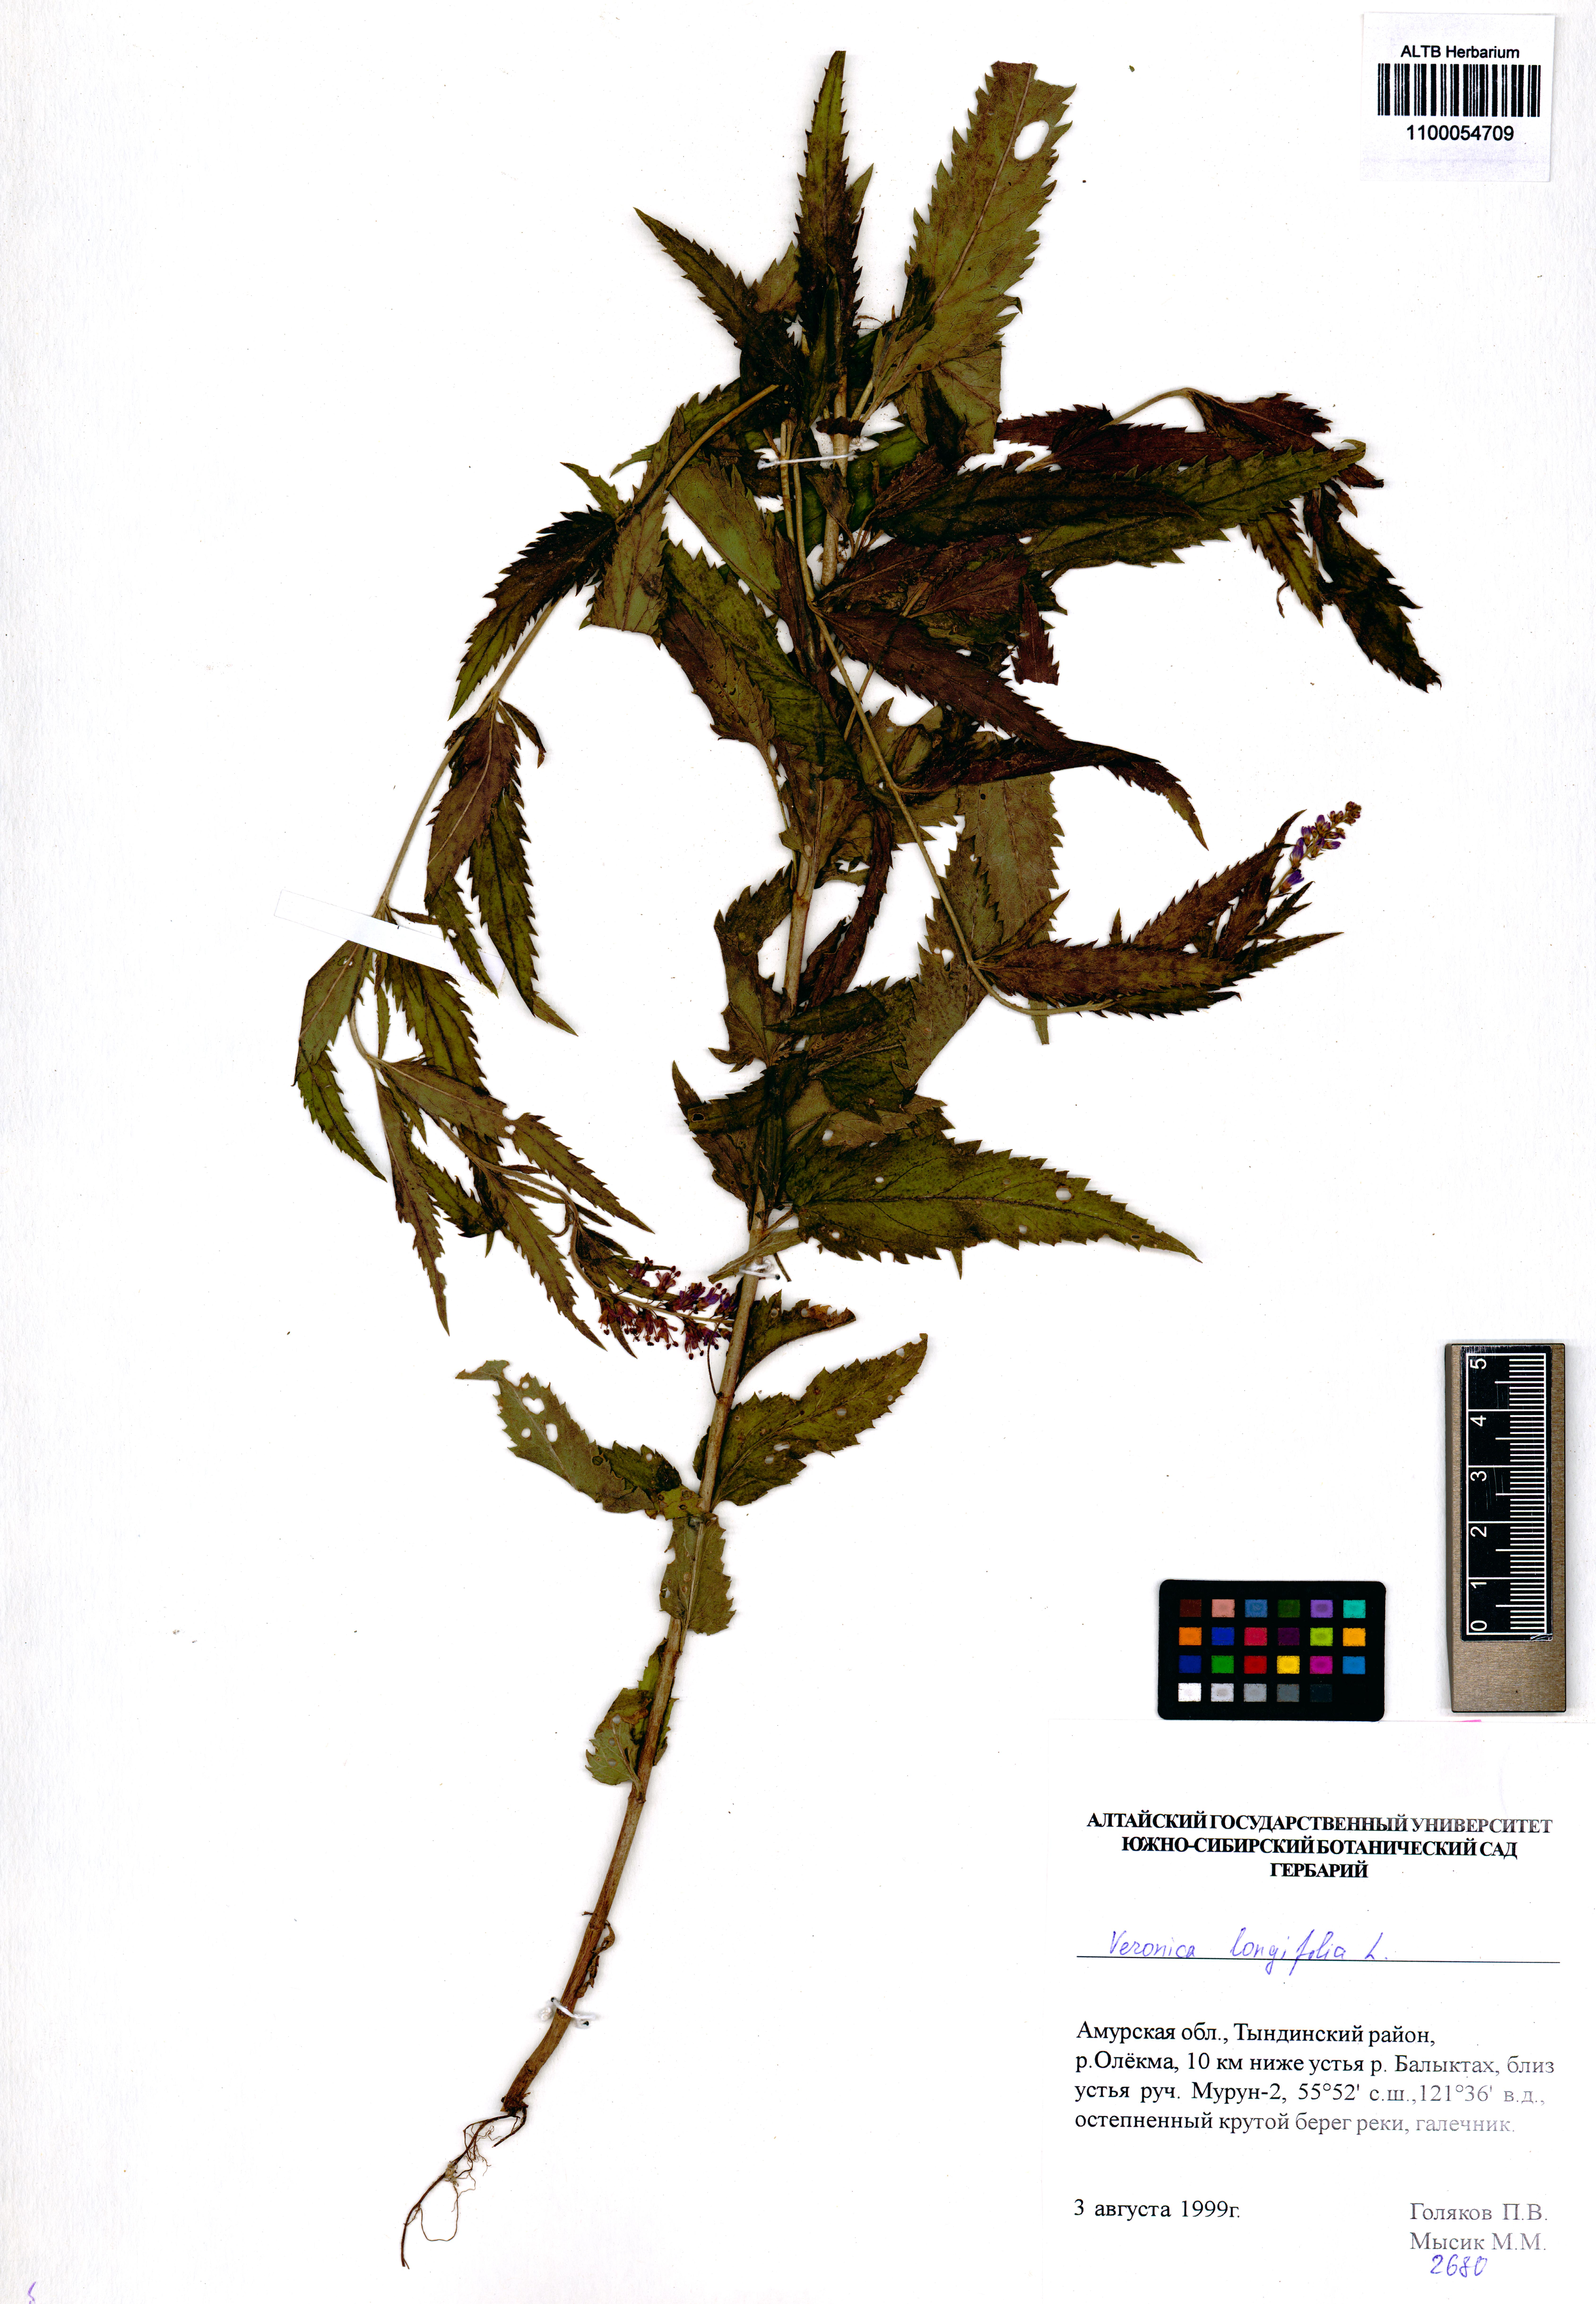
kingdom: Plantae
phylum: Tracheophyta
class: Magnoliopsida
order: Lamiales
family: Plantaginaceae
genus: Veronica
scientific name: Veronica longifolia
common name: Garden speedwell
